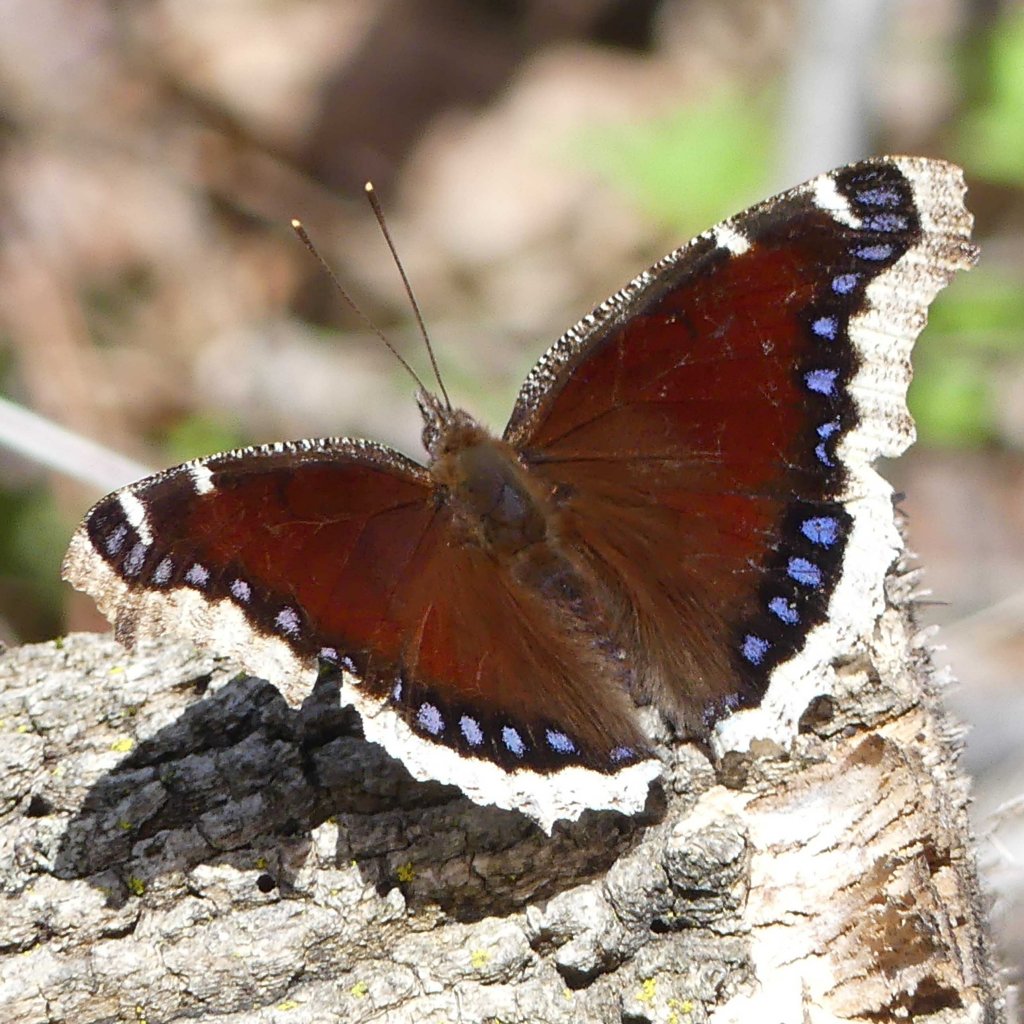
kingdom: Animalia
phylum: Arthropoda
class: Insecta
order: Lepidoptera
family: Nymphalidae
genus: Nymphalis
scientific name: Nymphalis antiopa
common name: Mourning Cloak
